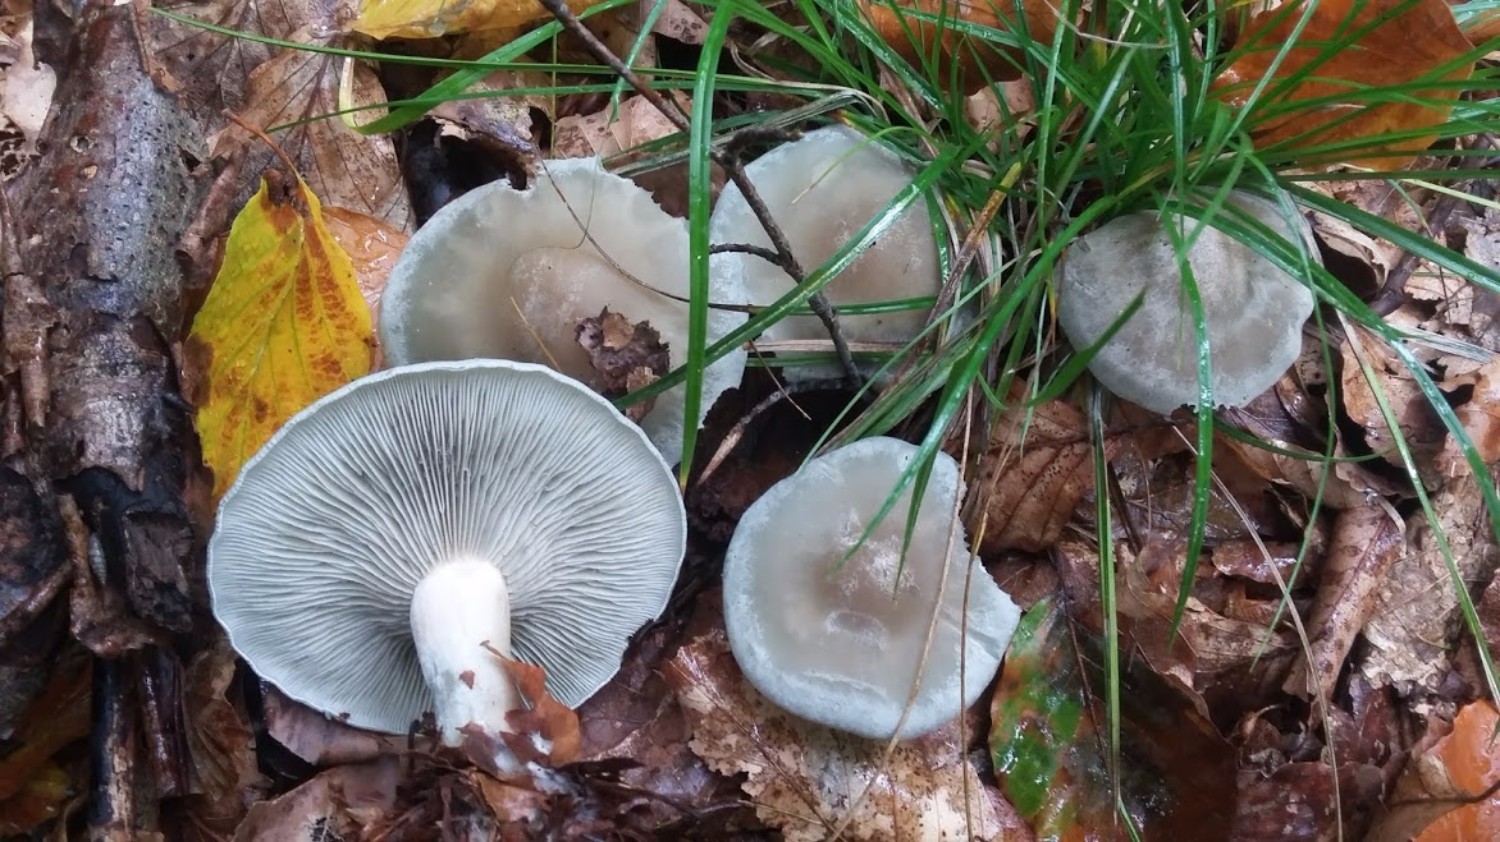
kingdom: Fungi
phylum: Basidiomycota
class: Agaricomycetes
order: Agaricales
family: Tricholomataceae
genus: Clitocybe
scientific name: Clitocybe odora
